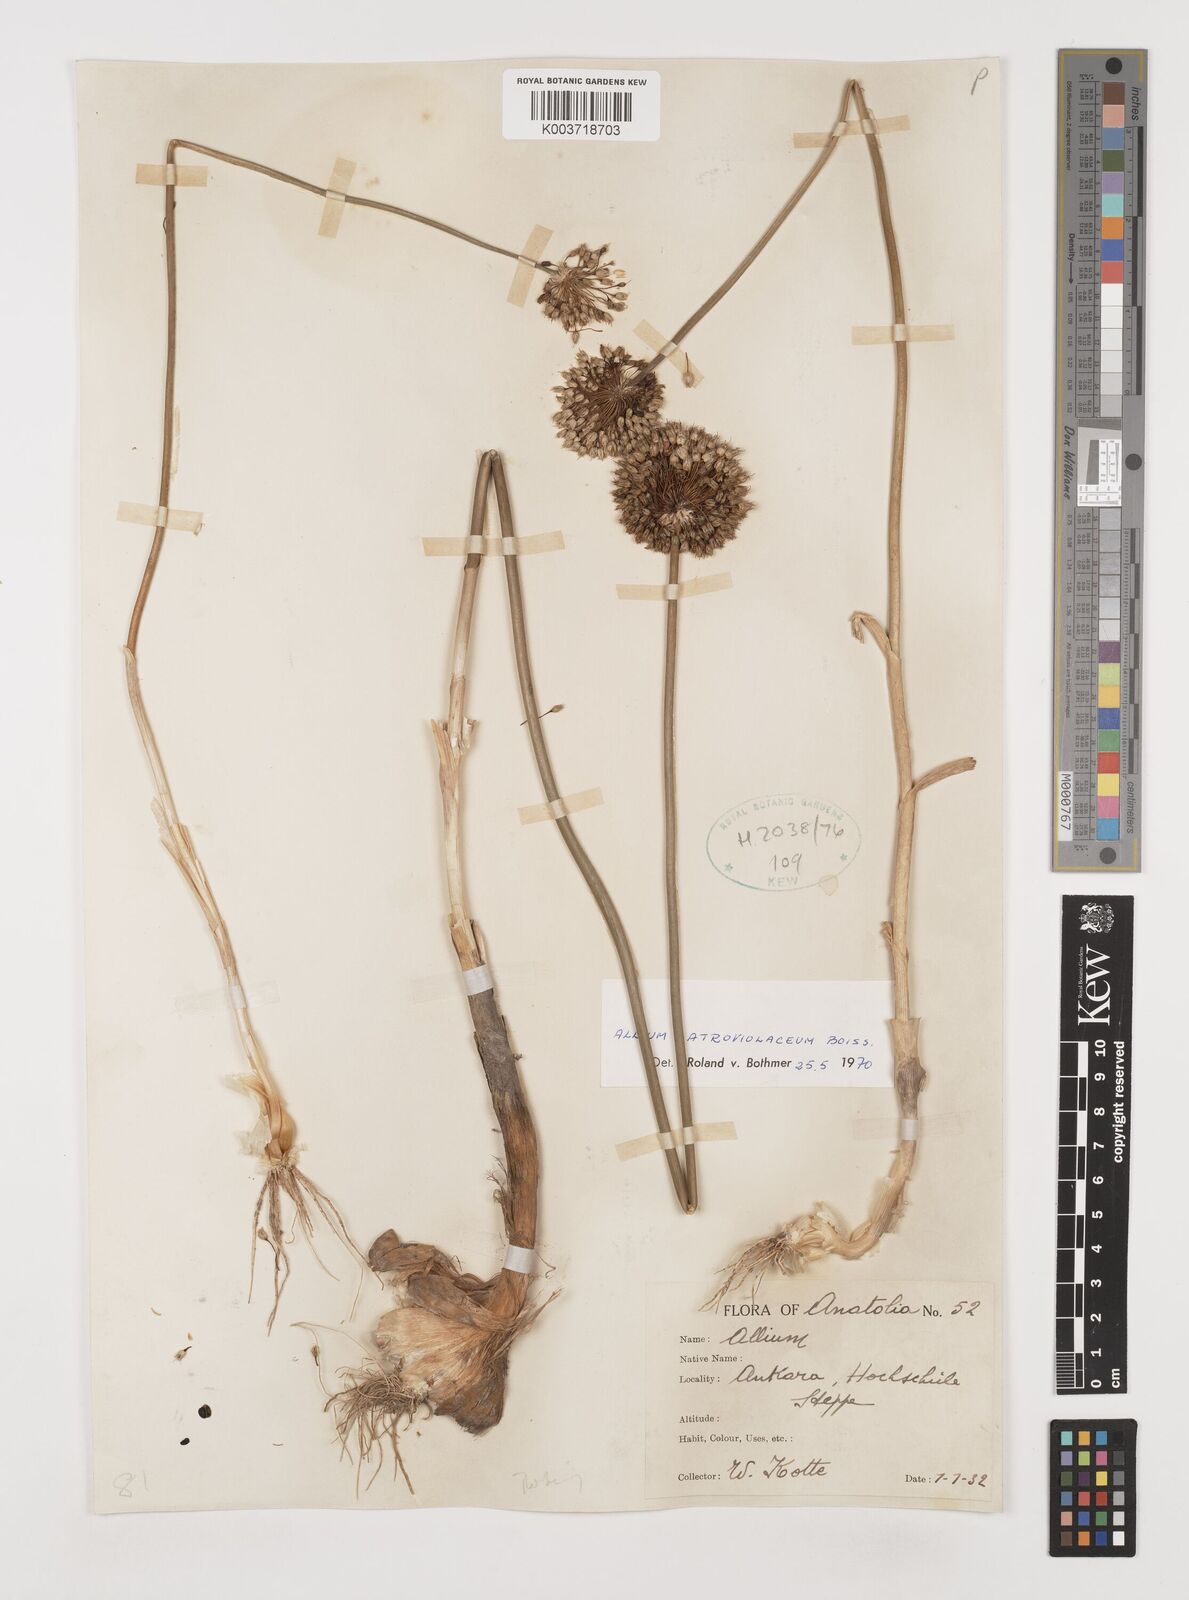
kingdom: Plantae
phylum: Tracheophyta
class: Liliopsida
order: Asparagales
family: Amaryllidaceae
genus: Allium
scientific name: Allium atroviolaceum
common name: Broadleaf wild leek
